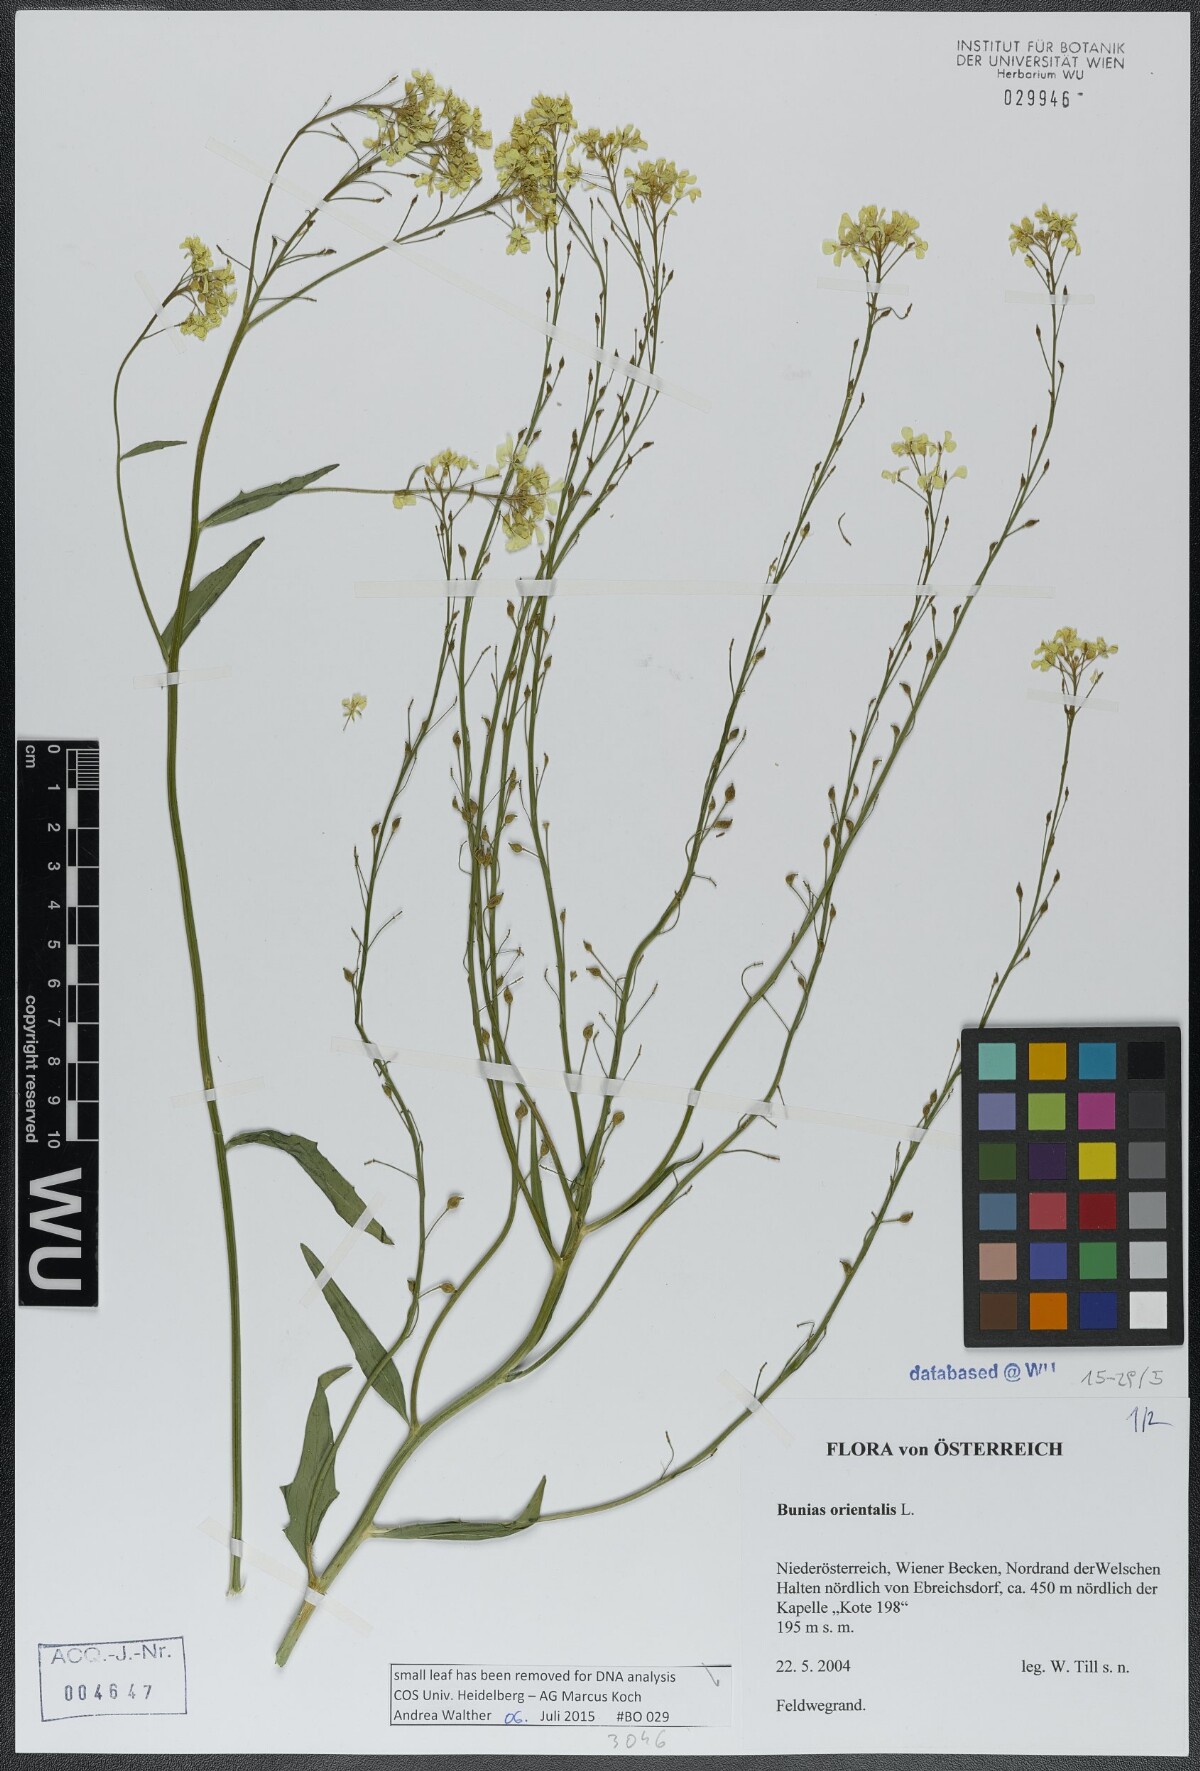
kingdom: Plantae
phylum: Tracheophyta
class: Magnoliopsida
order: Brassicales
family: Brassicaceae
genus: Bunias
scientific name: Bunias orientalis
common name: Warty-cabbage
